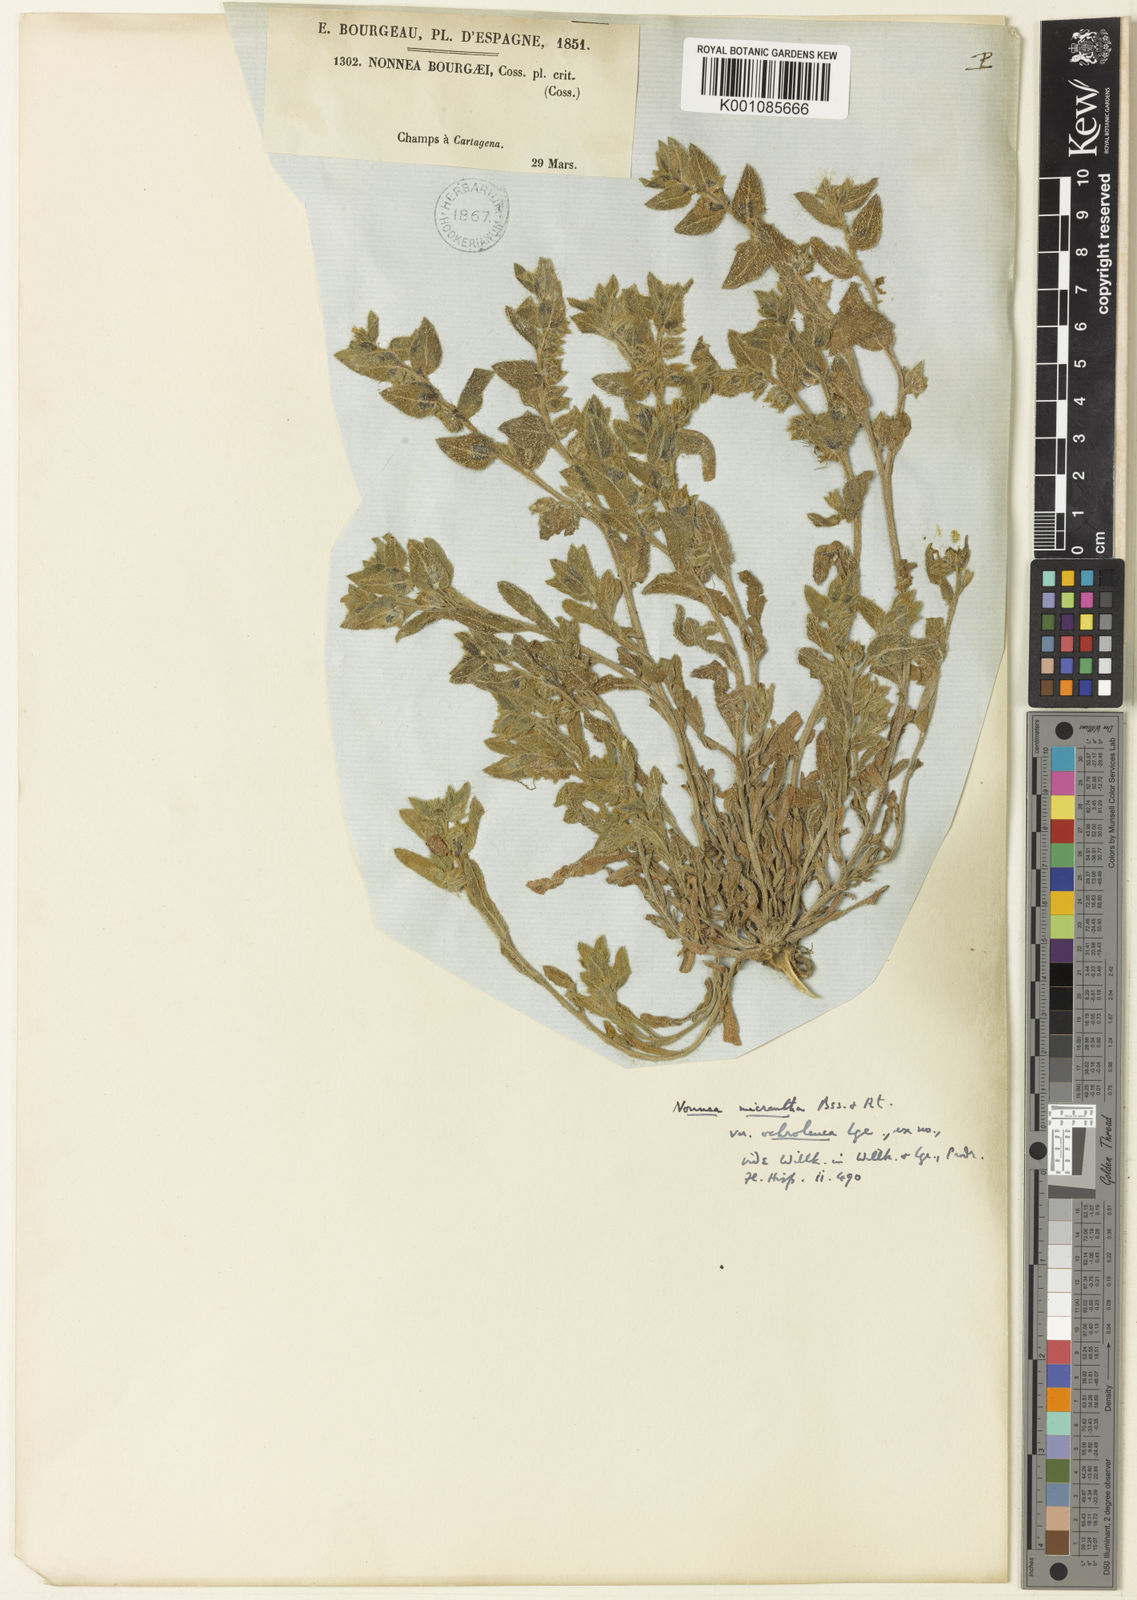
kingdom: Plantae
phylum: Tracheophyta
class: Magnoliopsida
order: Boraginales
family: Boraginaceae
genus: Nonea
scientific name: Nonea micrantha
